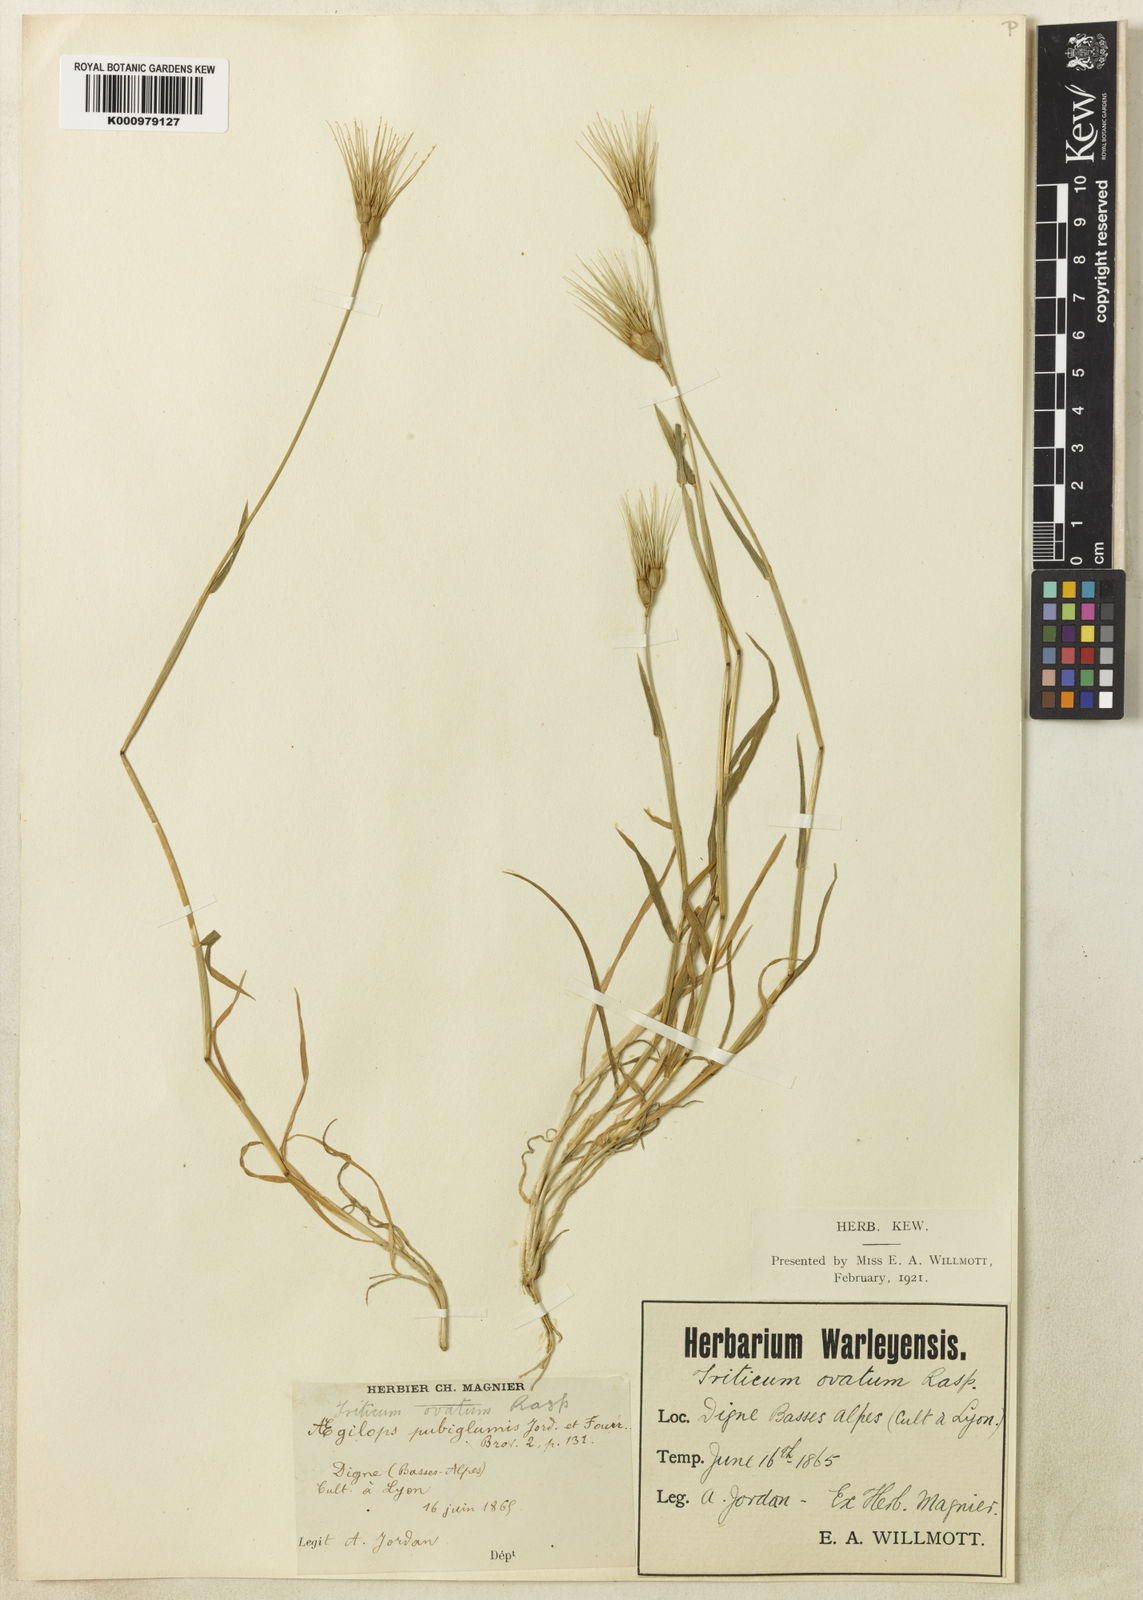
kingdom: Plantae
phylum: Tracheophyta
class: Liliopsida
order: Poales
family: Poaceae
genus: Aegilops
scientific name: Aegilops geniculata
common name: Ovate goat grass
